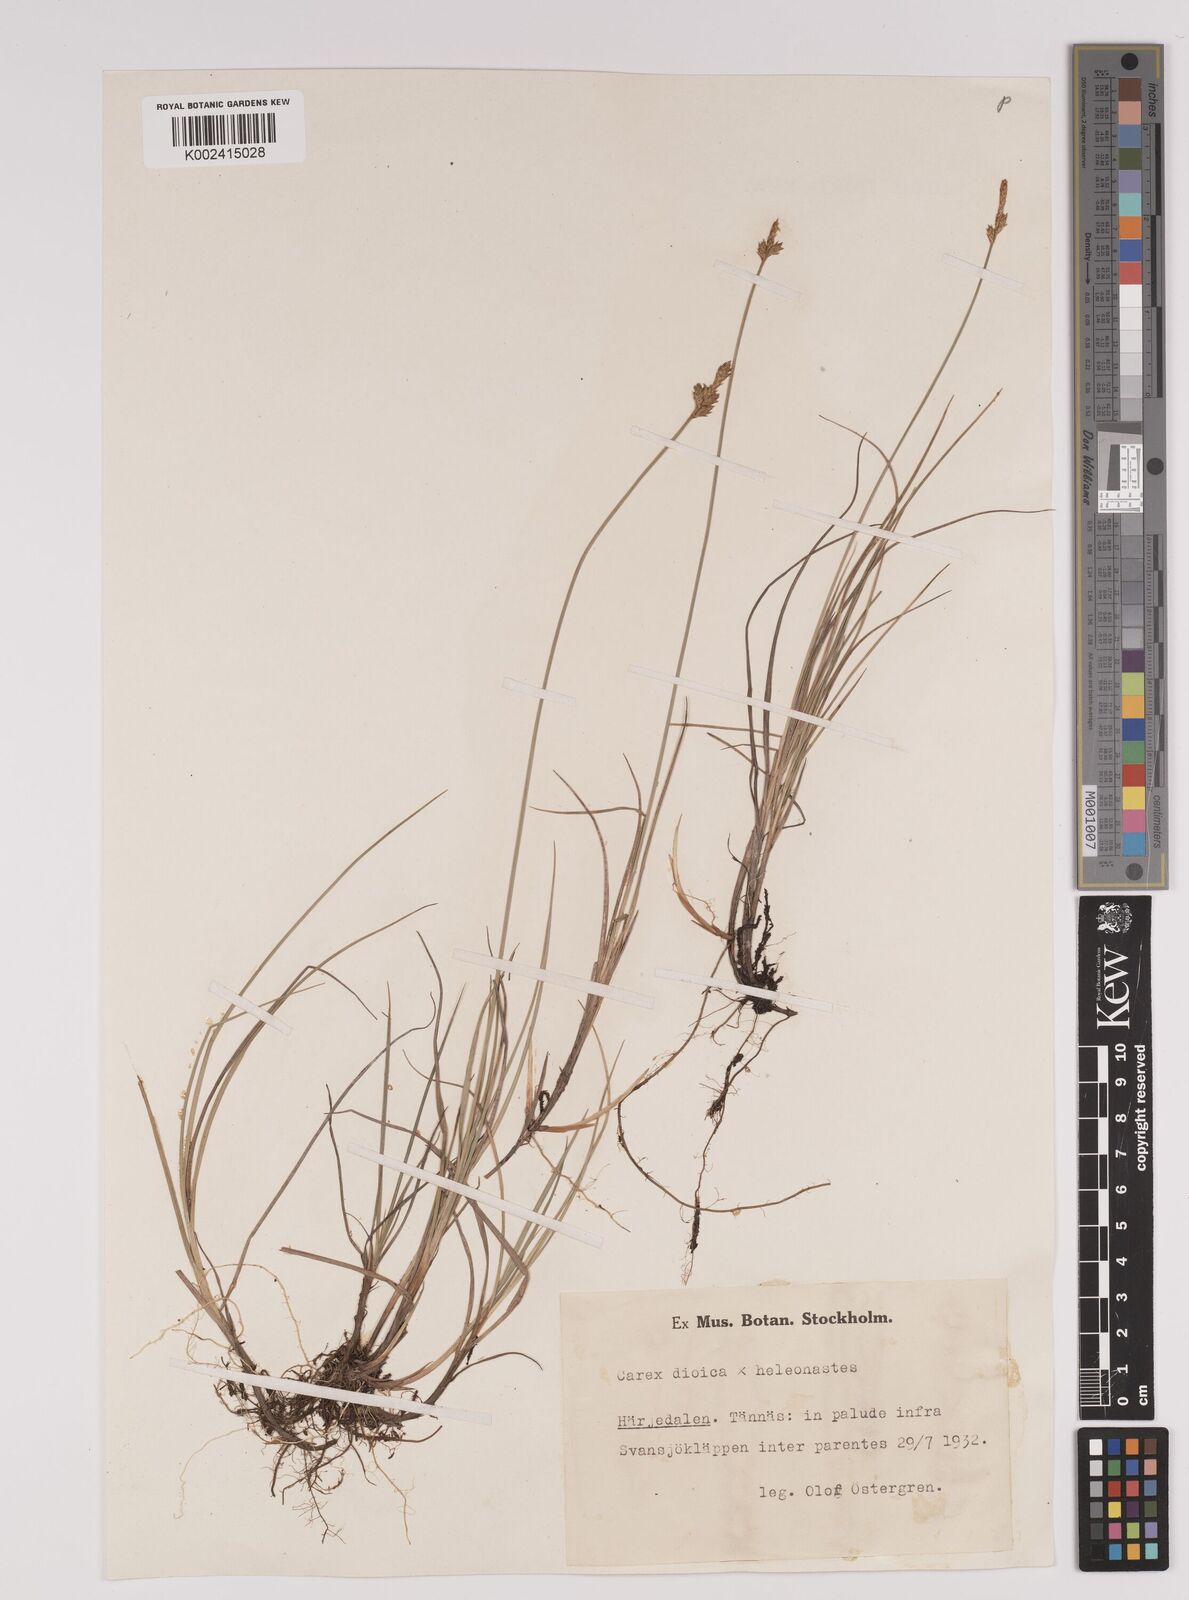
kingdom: Plantae
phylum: Tracheophyta
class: Liliopsida
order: Poales
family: Cyperaceae
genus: Carex
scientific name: Carex dioica
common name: Dioecious sedge
